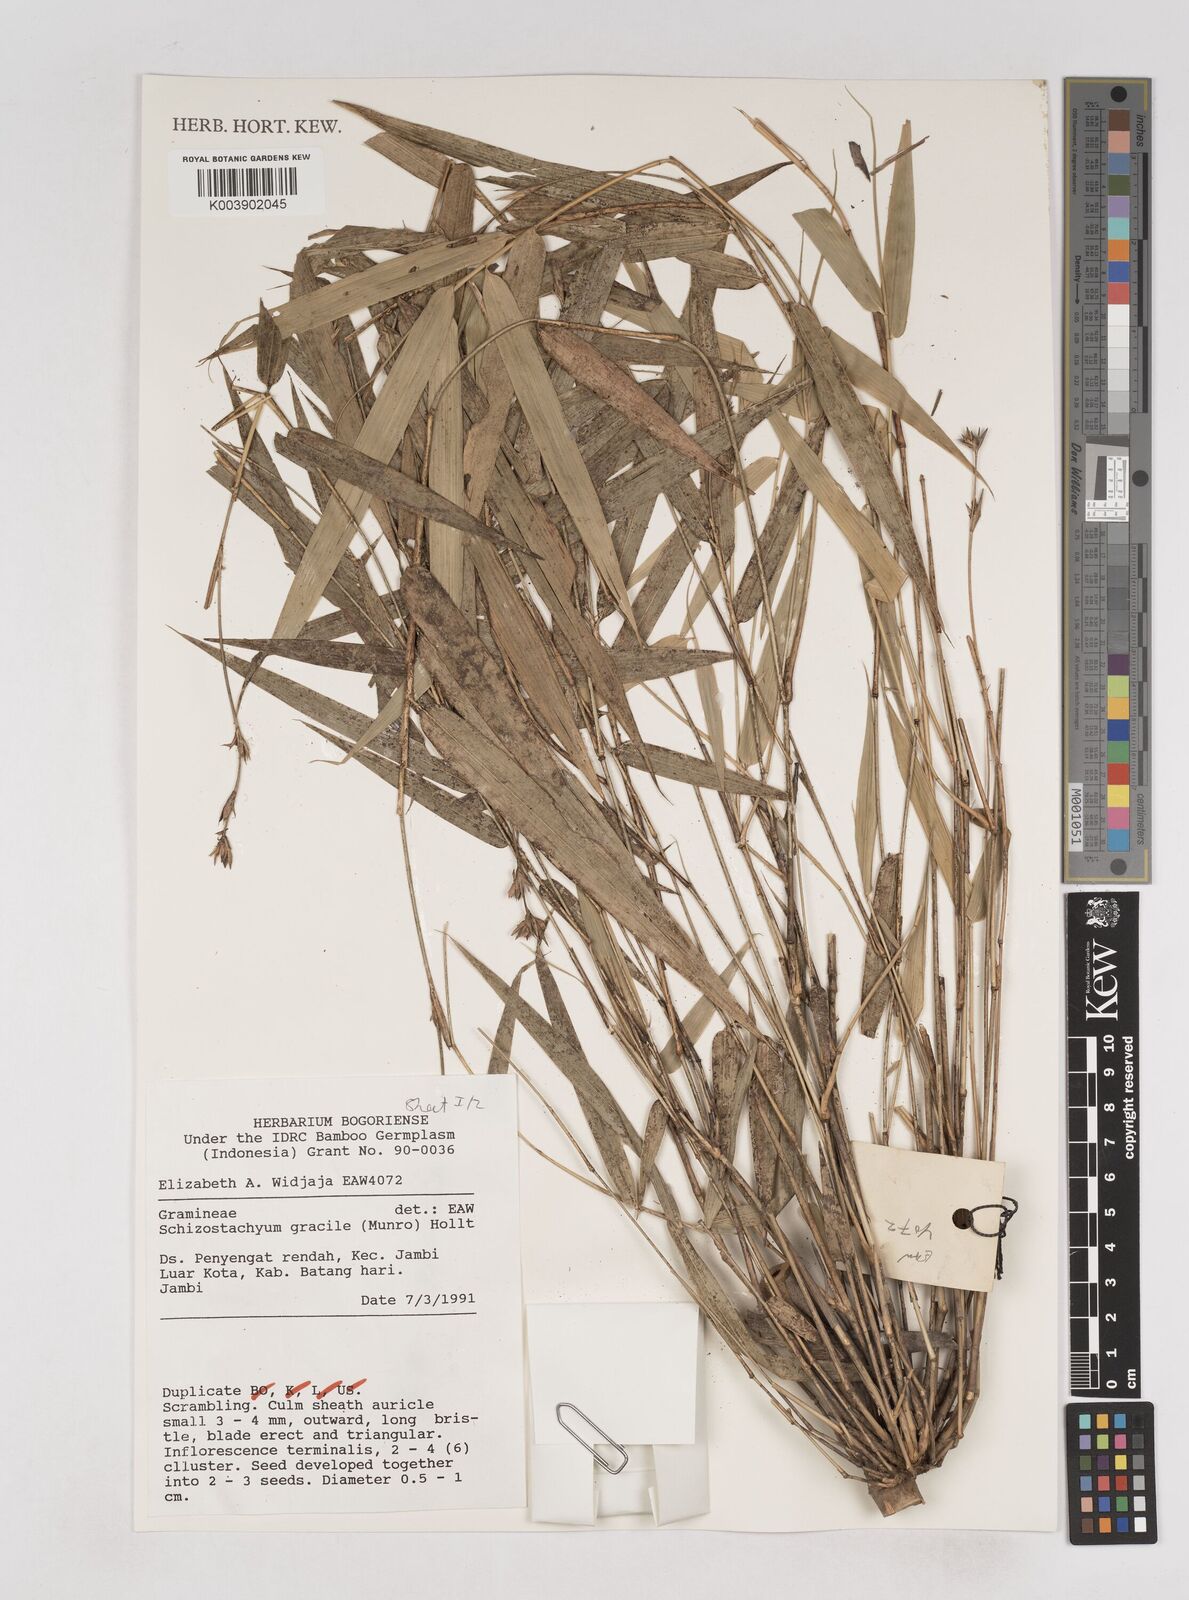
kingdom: Plantae
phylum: Tracheophyta
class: Liliopsida
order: Poales
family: Poaceae
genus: Schizostachyum
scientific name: Schizostachyum gracile
